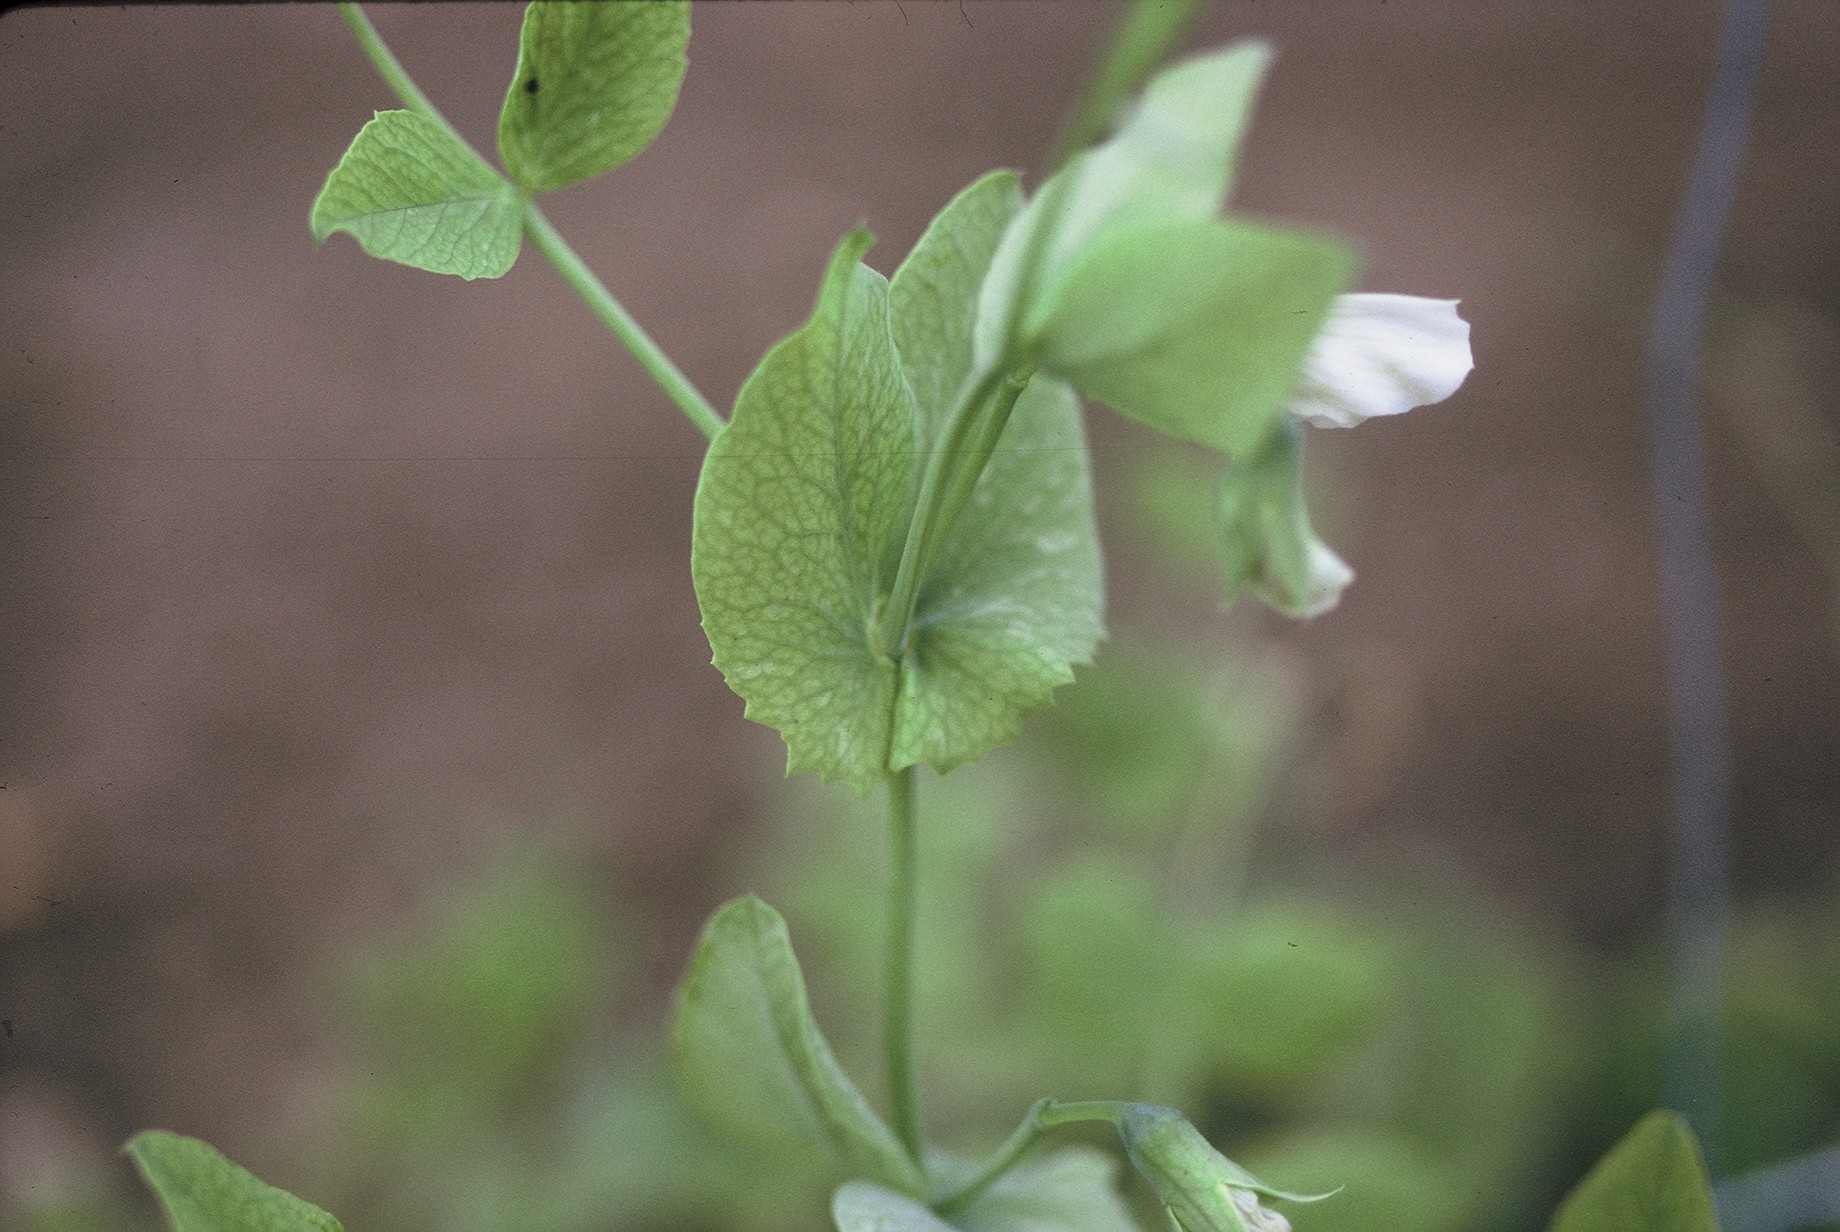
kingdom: Plantae
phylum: Tracheophyta
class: Magnoliopsida
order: Fabales
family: Fabaceae
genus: Lathyrus
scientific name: Lathyrus oleraceus
